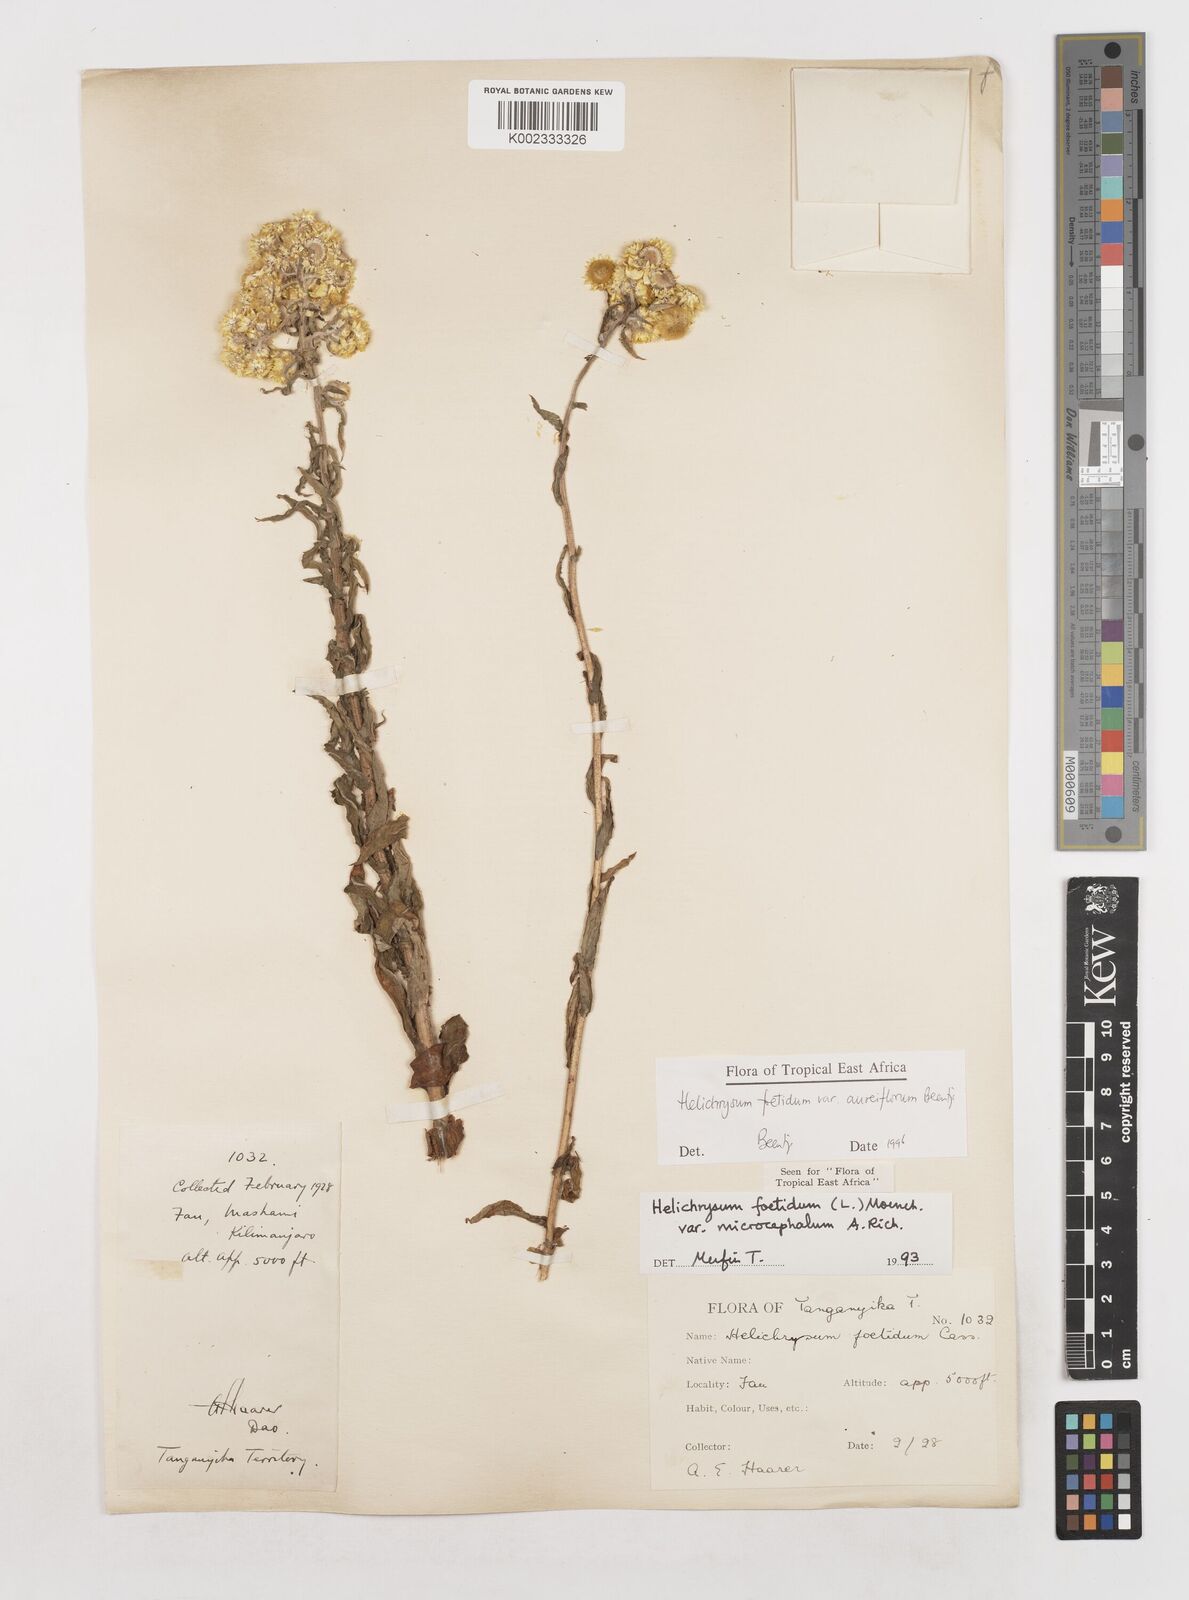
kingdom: Plantae
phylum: Tracheophyta
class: Magnoliopsida
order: Asterales
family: Asteraceae
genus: Helichrysum
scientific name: Helichrysum foetidum
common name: Stinking everlasting
